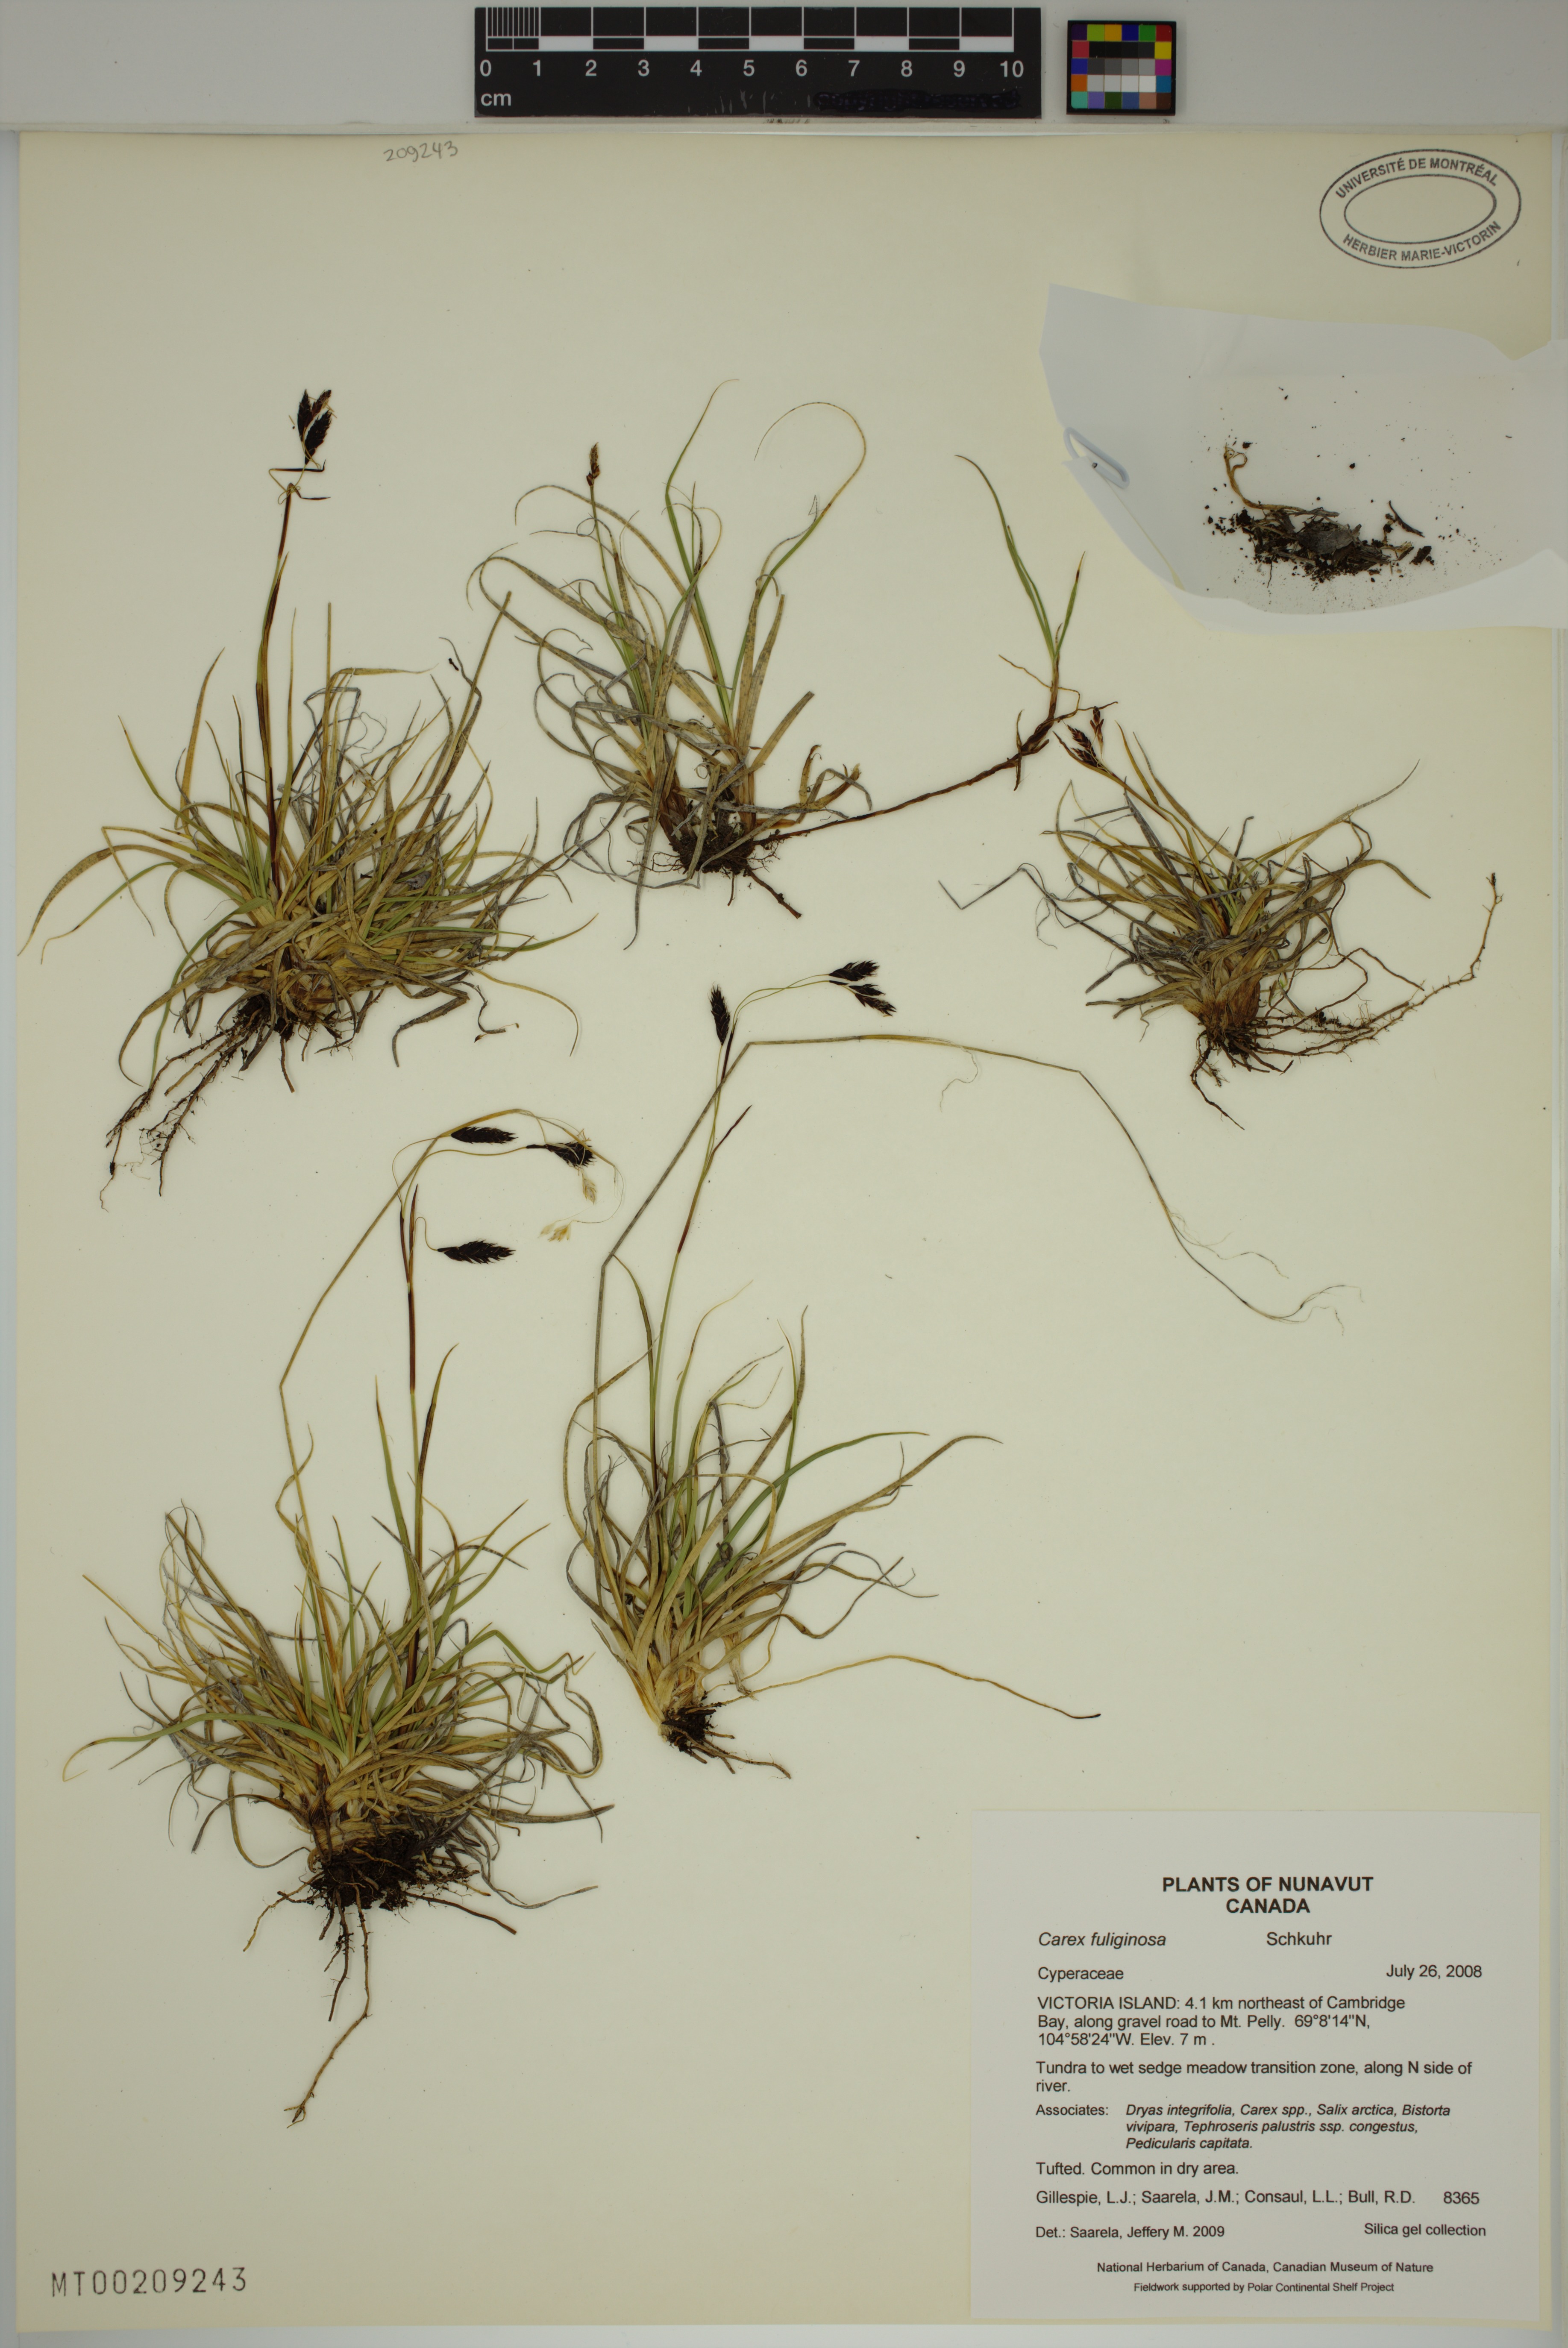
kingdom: Plantae
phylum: Tracheophyta
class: Liliopsida
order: Poales
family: Cyperaceae
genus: Carex
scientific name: Carex fuliginosa
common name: Few-flowered sedge
